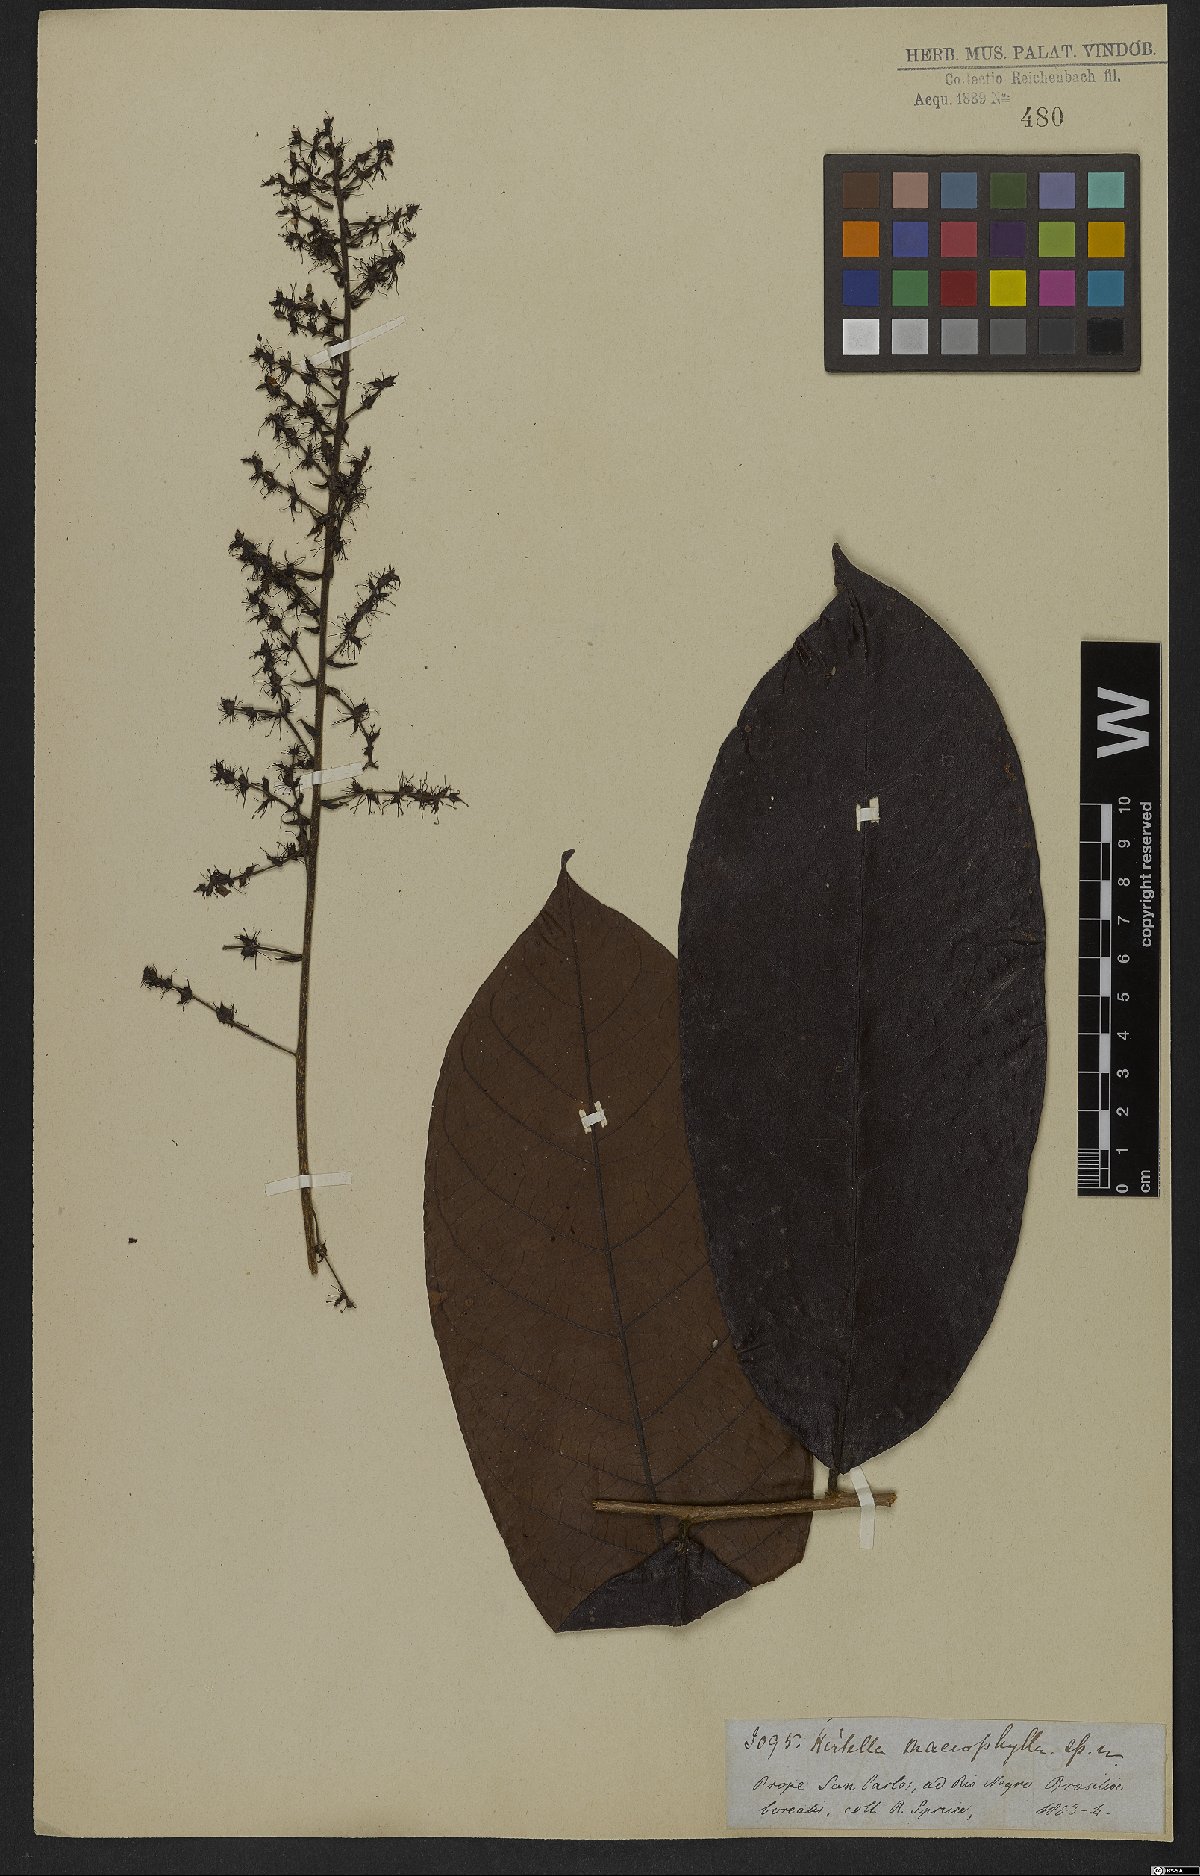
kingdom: Plantae
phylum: Tracheophyta
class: Magnoliopsida
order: Malpighiales
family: Chrysobalanaceae
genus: Hirtella
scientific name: Hirtella macrophylla
